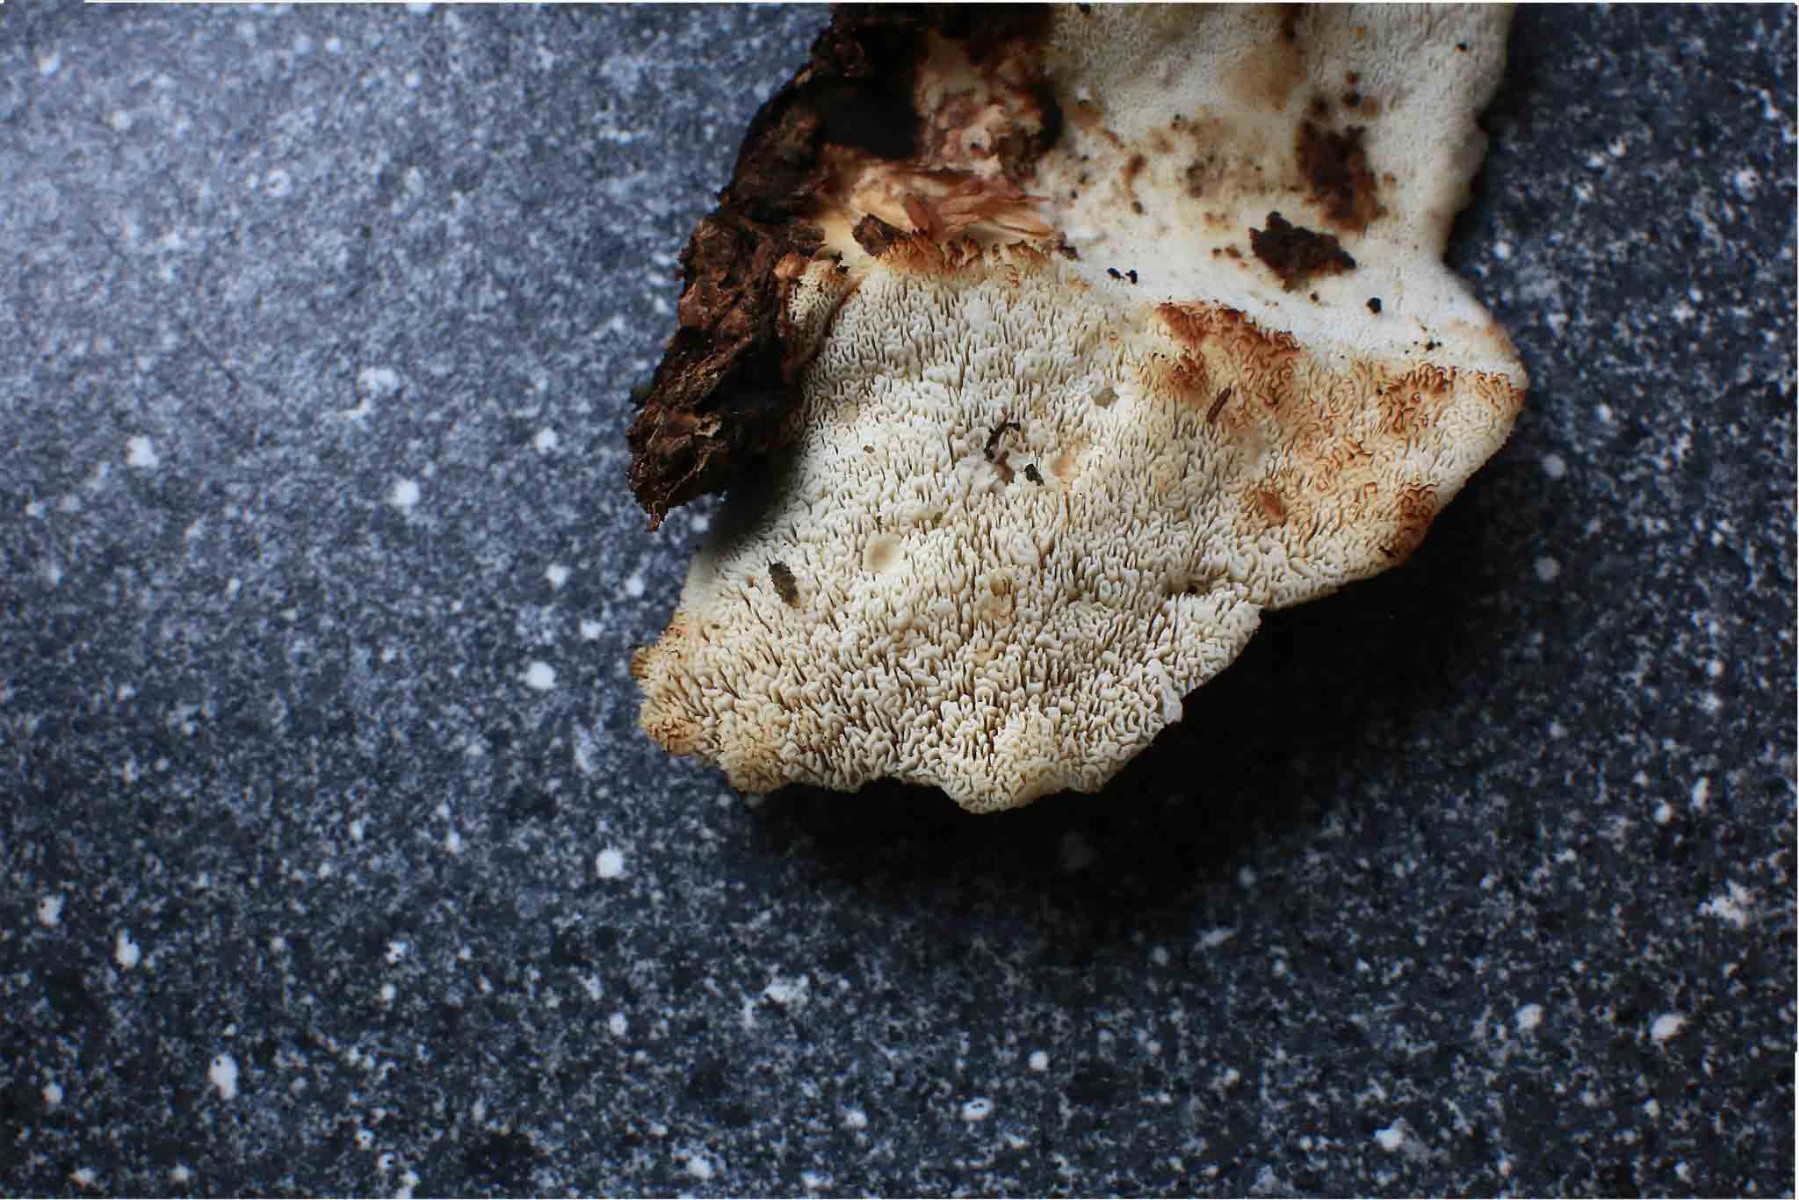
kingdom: Fungi
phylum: Basidiomycota
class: Agaricomycetes
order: Polyporales
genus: Fuscopostia
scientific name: Fuscopostia fragilis
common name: brunende kødporesvamp
